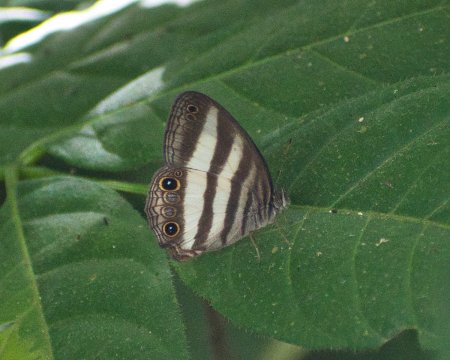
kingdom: Animalia
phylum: Arthropoda
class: Insecta
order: Lepidoptera
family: Nymphalidae
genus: Pareuptychia
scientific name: Pareuptychia hesione
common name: White Satyr
